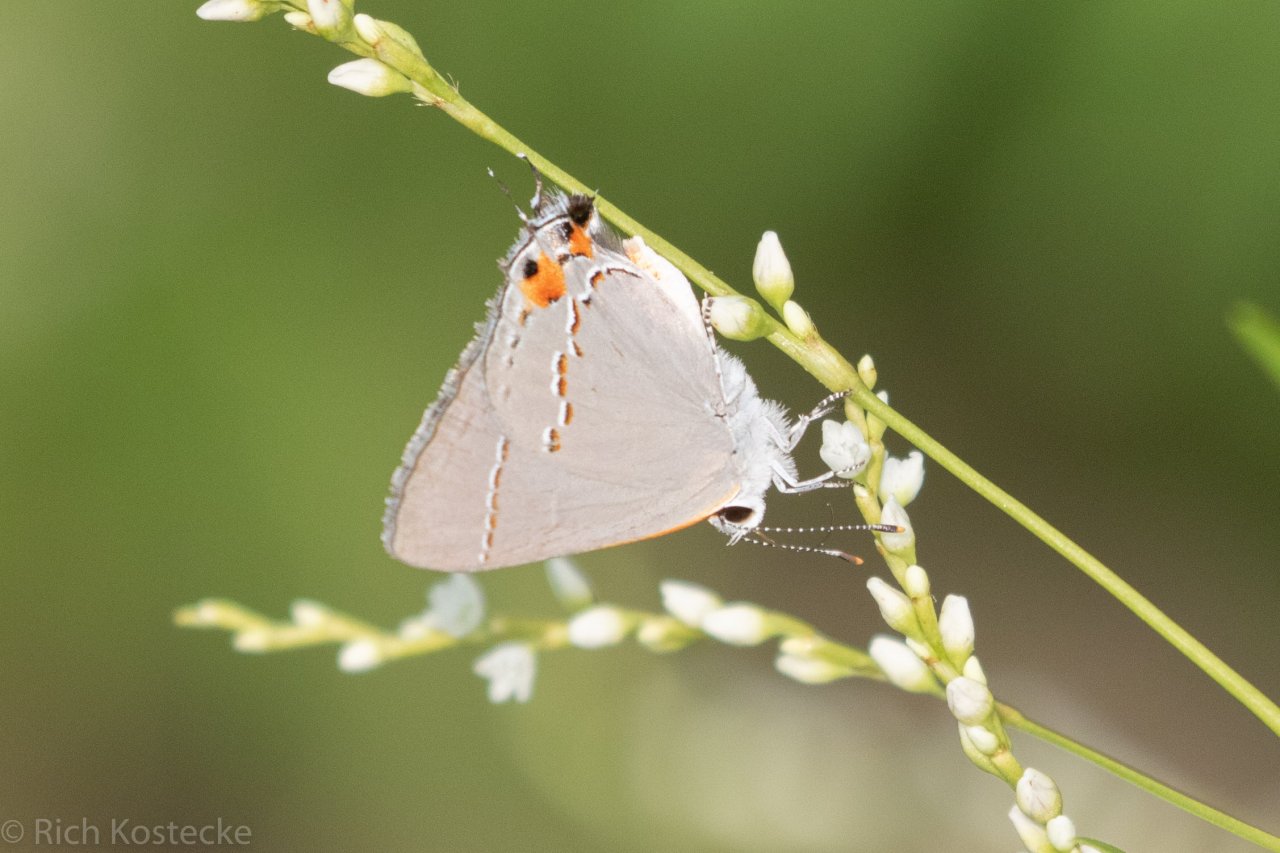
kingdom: Animalia
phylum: Arthropoda
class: Insecta
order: Lepidoptera
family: Lycaenidae
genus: Strymon
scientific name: Strymon melinus
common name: Gray Hairstreak
